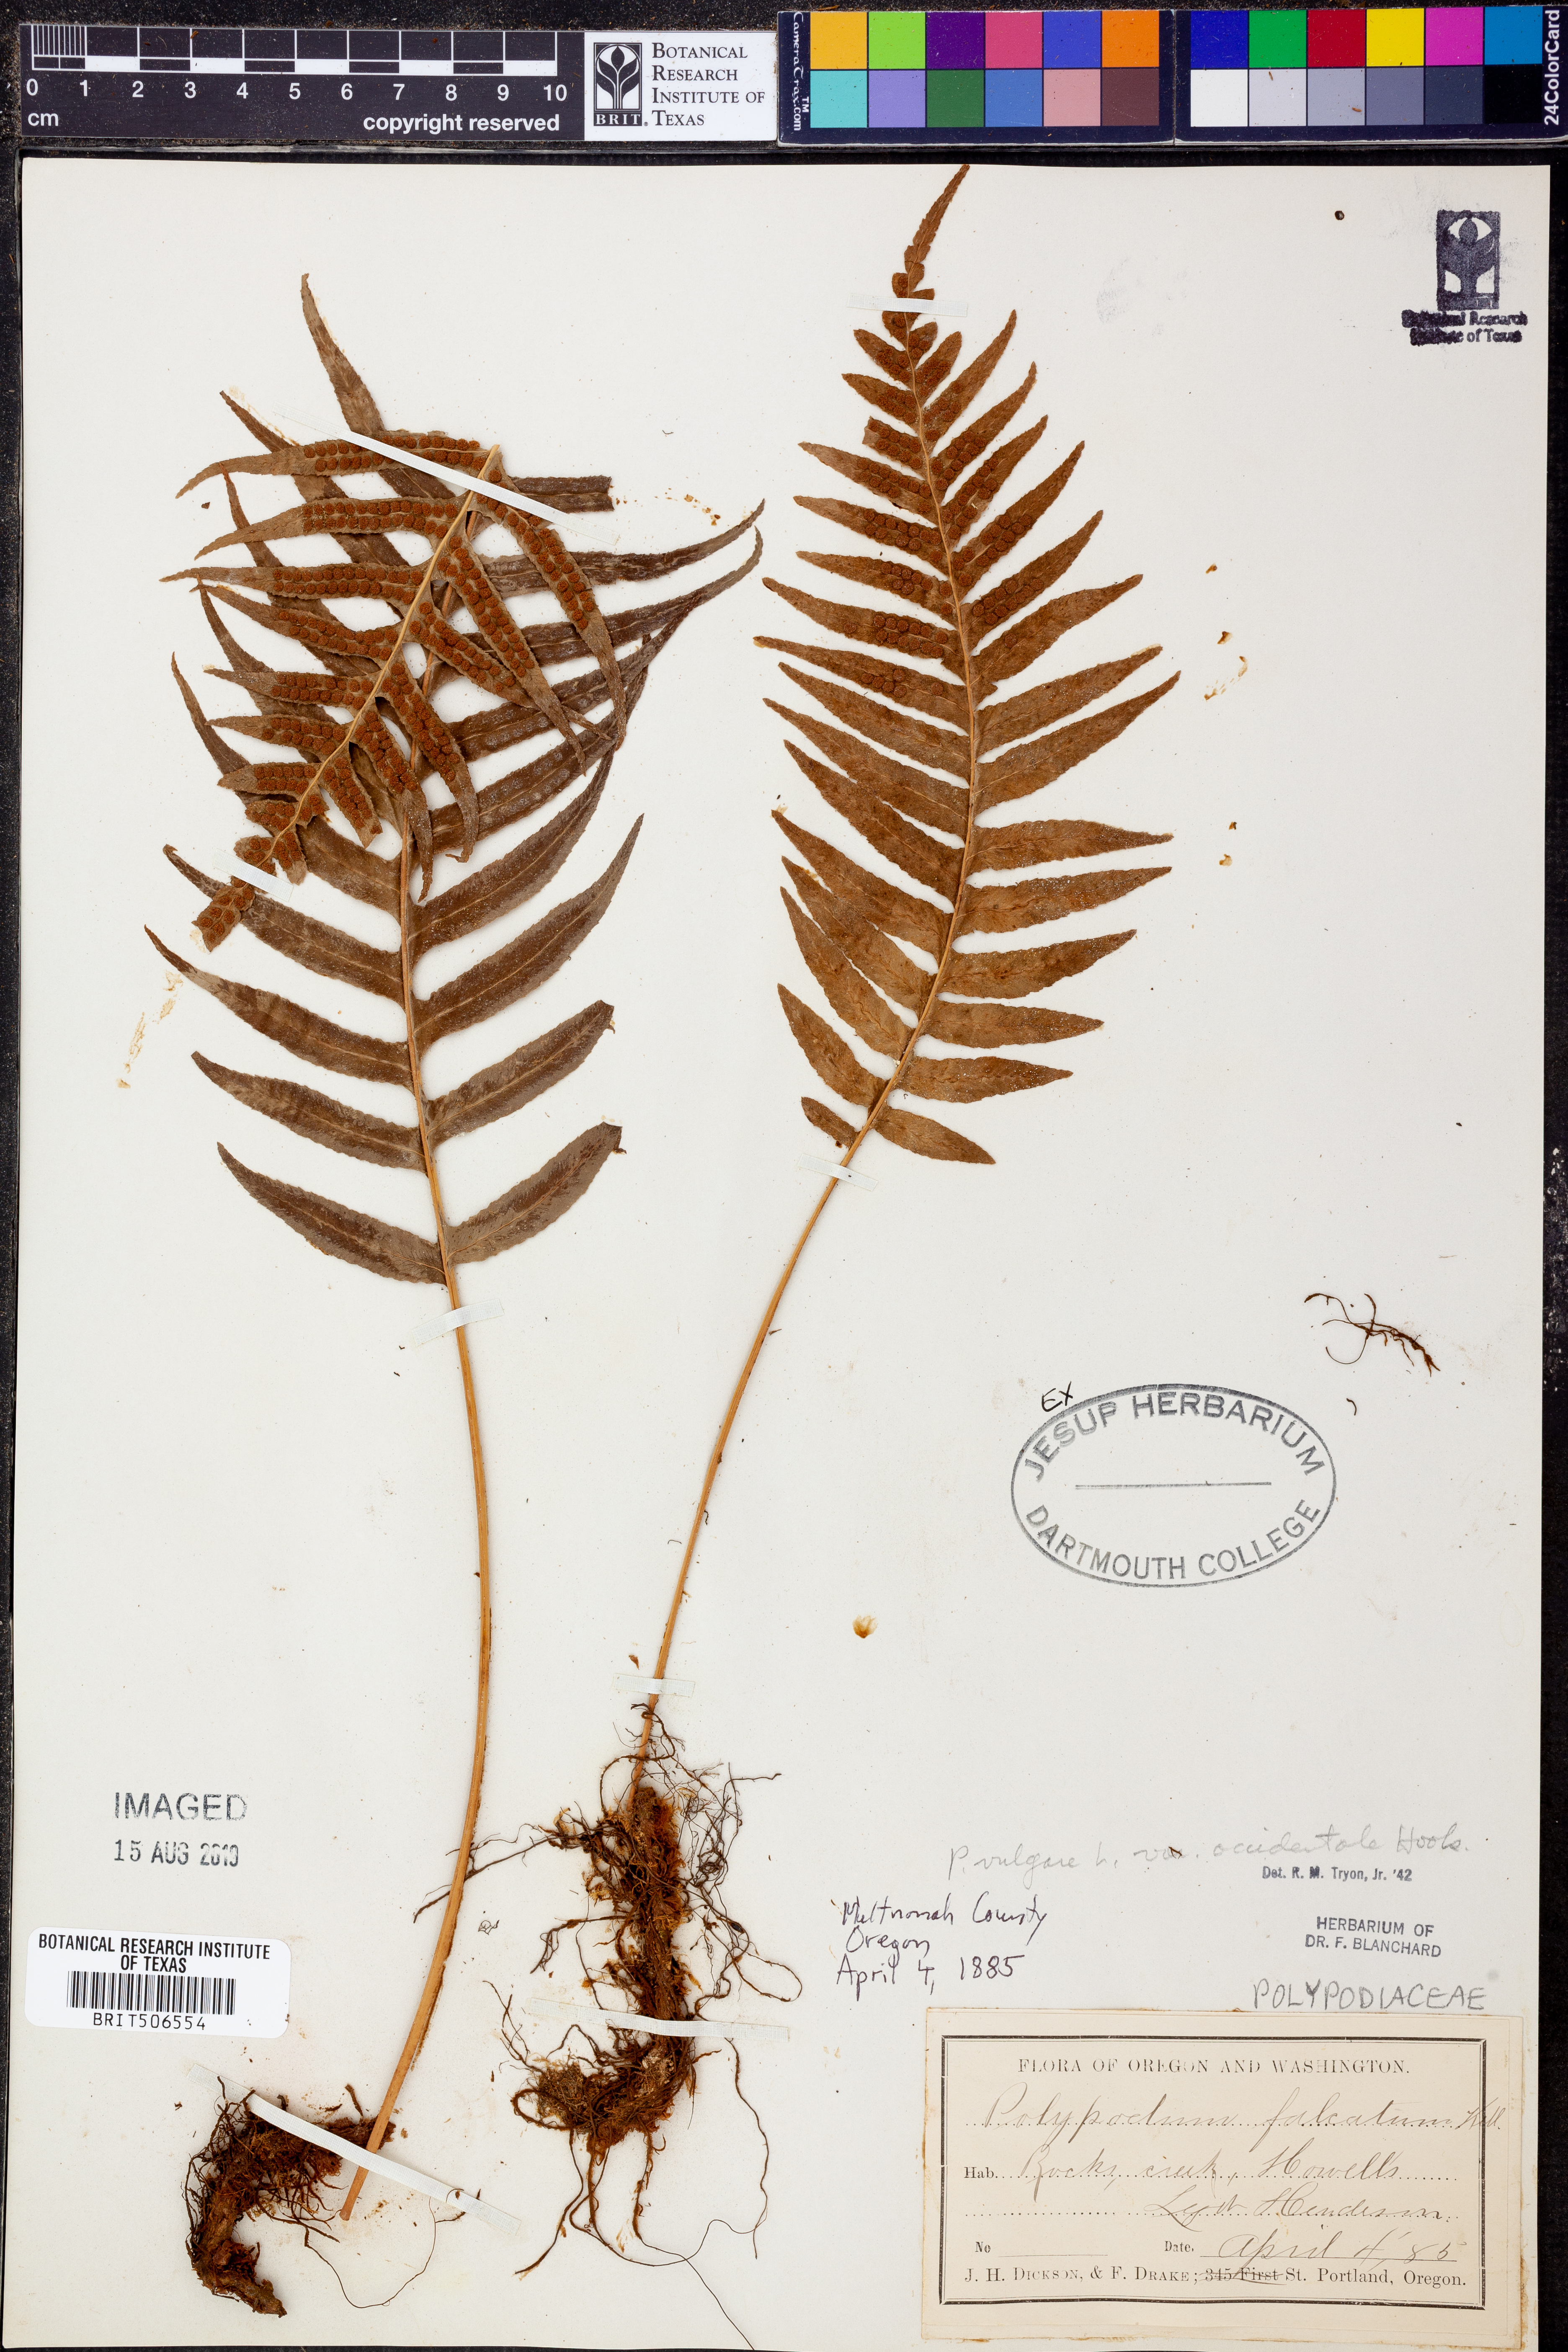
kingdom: Plantae
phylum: Tracheophyta
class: Polypodiopsida
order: Polypodiales
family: Polypodiaceae
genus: Polypodium
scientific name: Polypodium glycyrrhiza
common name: Licorice fern
